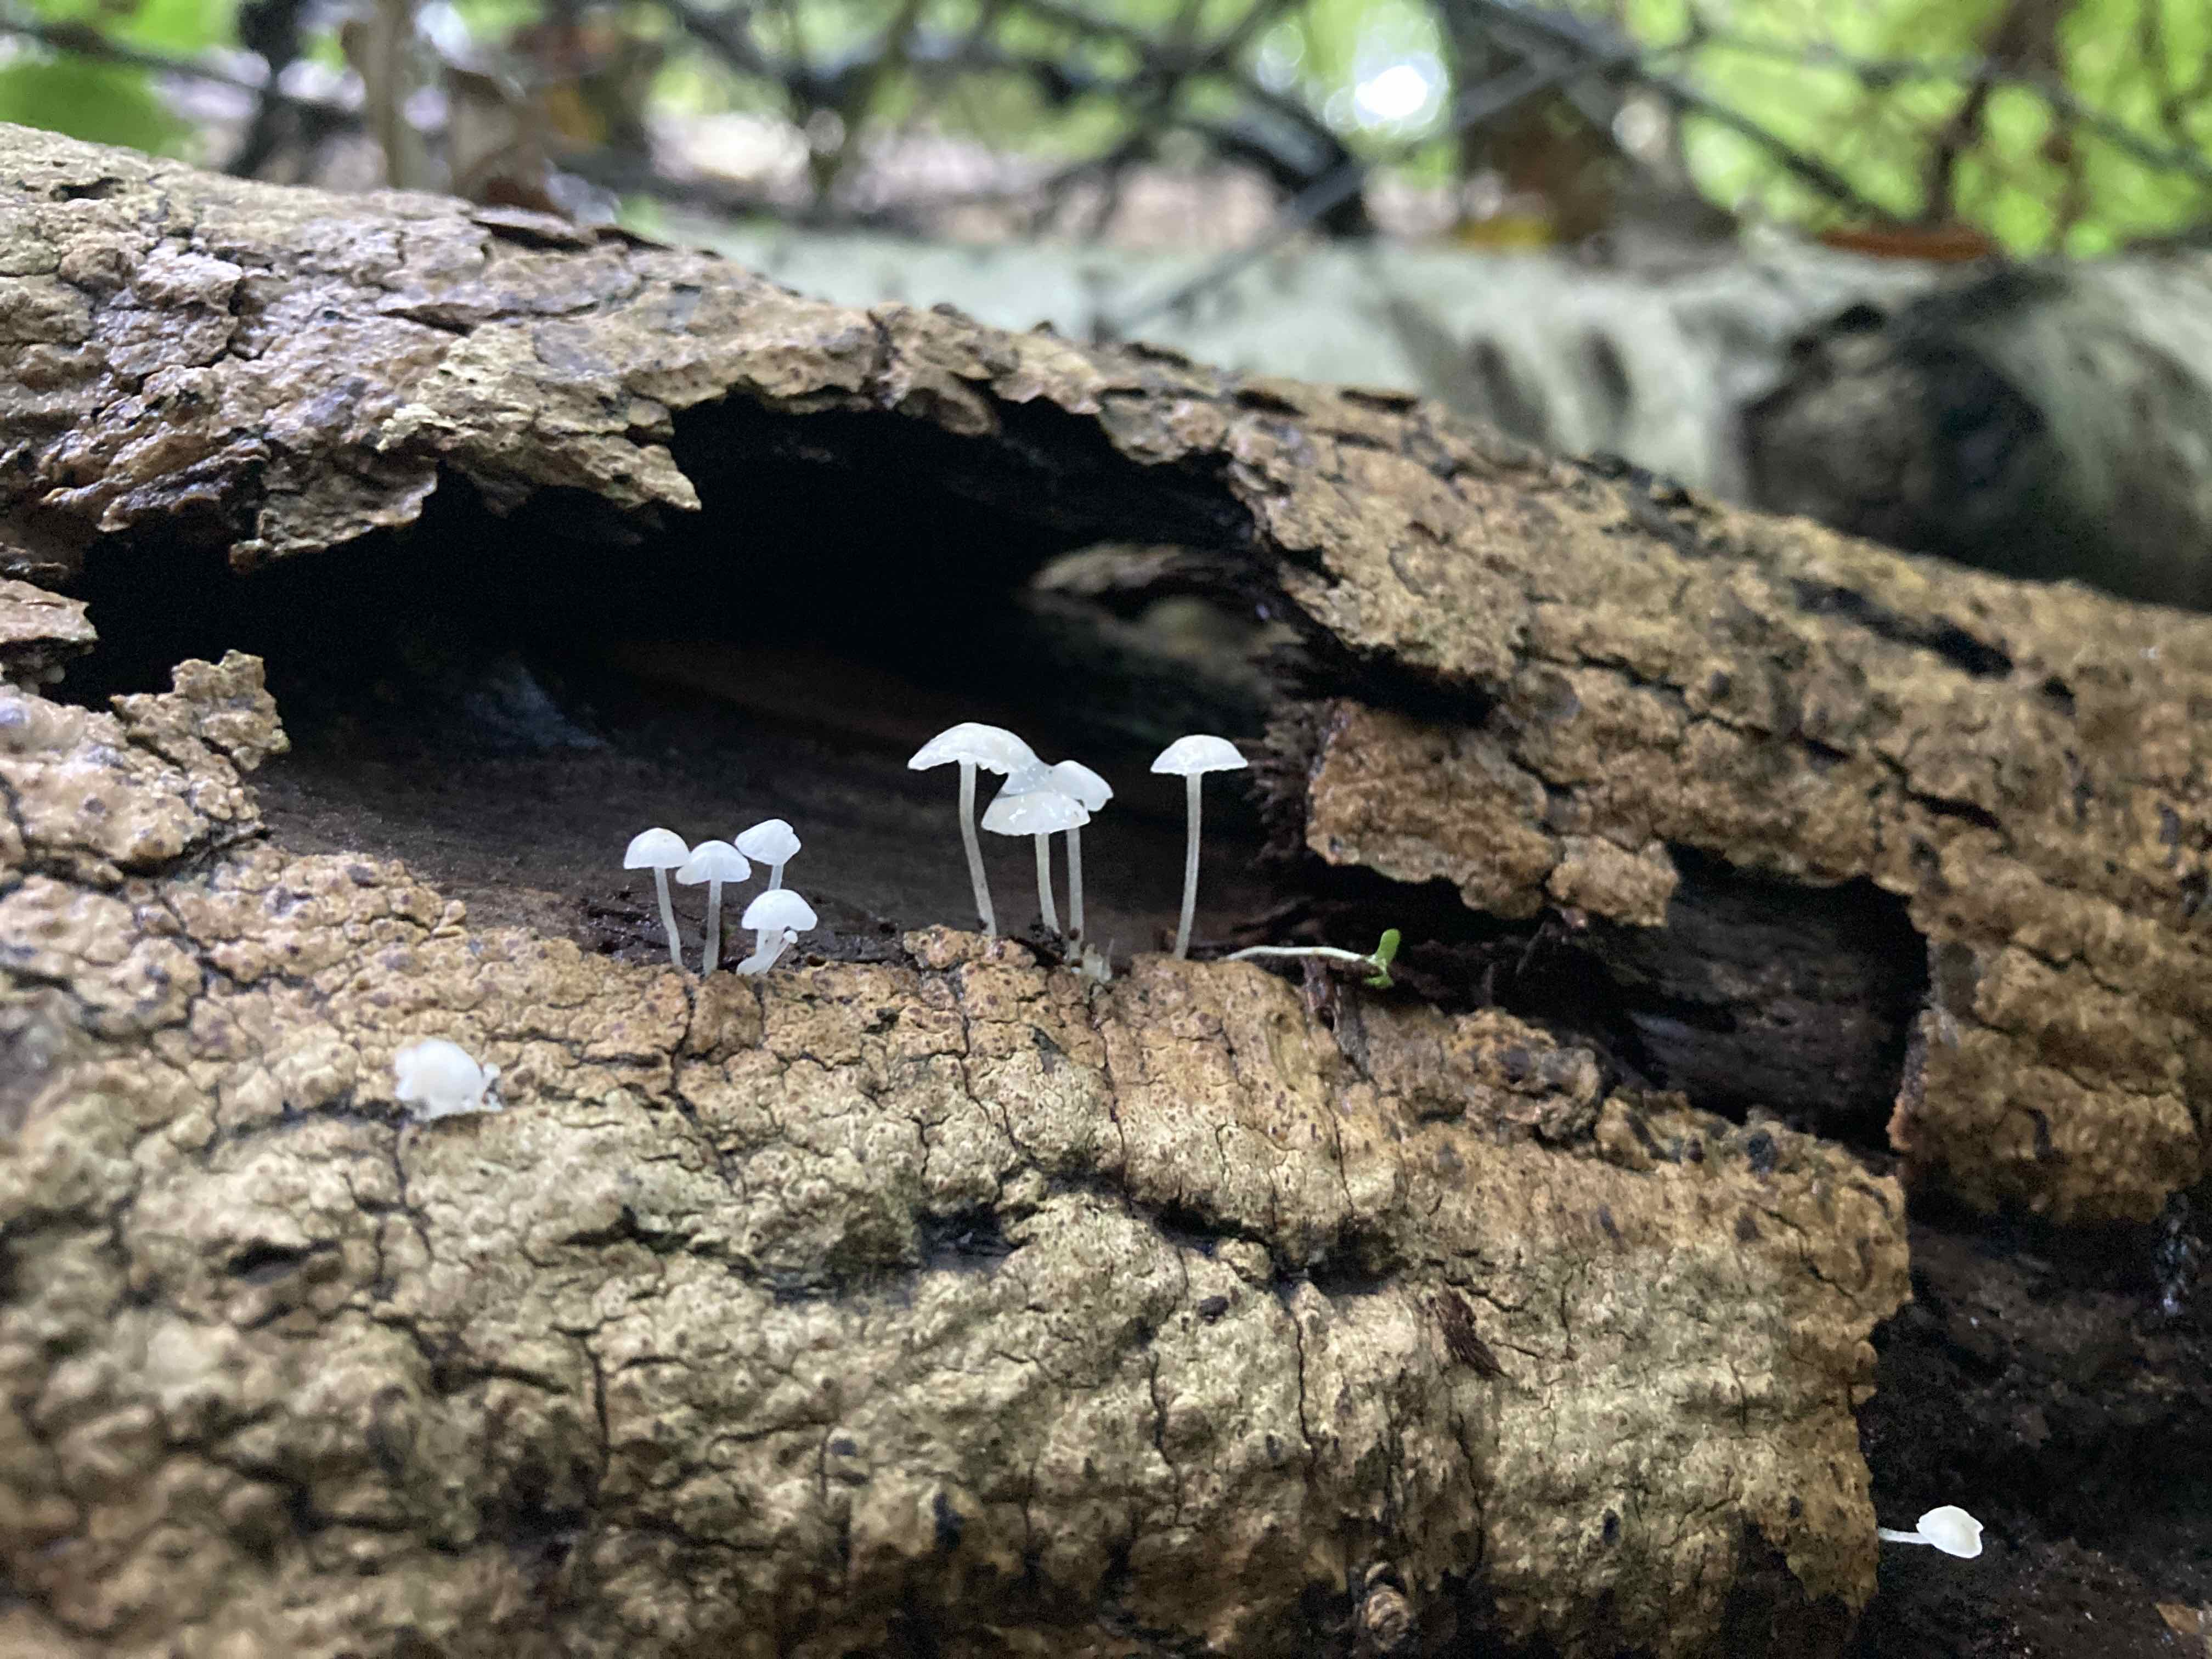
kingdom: Fungi
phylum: Basidiomycota
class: Agaricomycetes
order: Agaricales
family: Mycenaceae
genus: Hemimycena
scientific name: Hemimycena tortuosa
